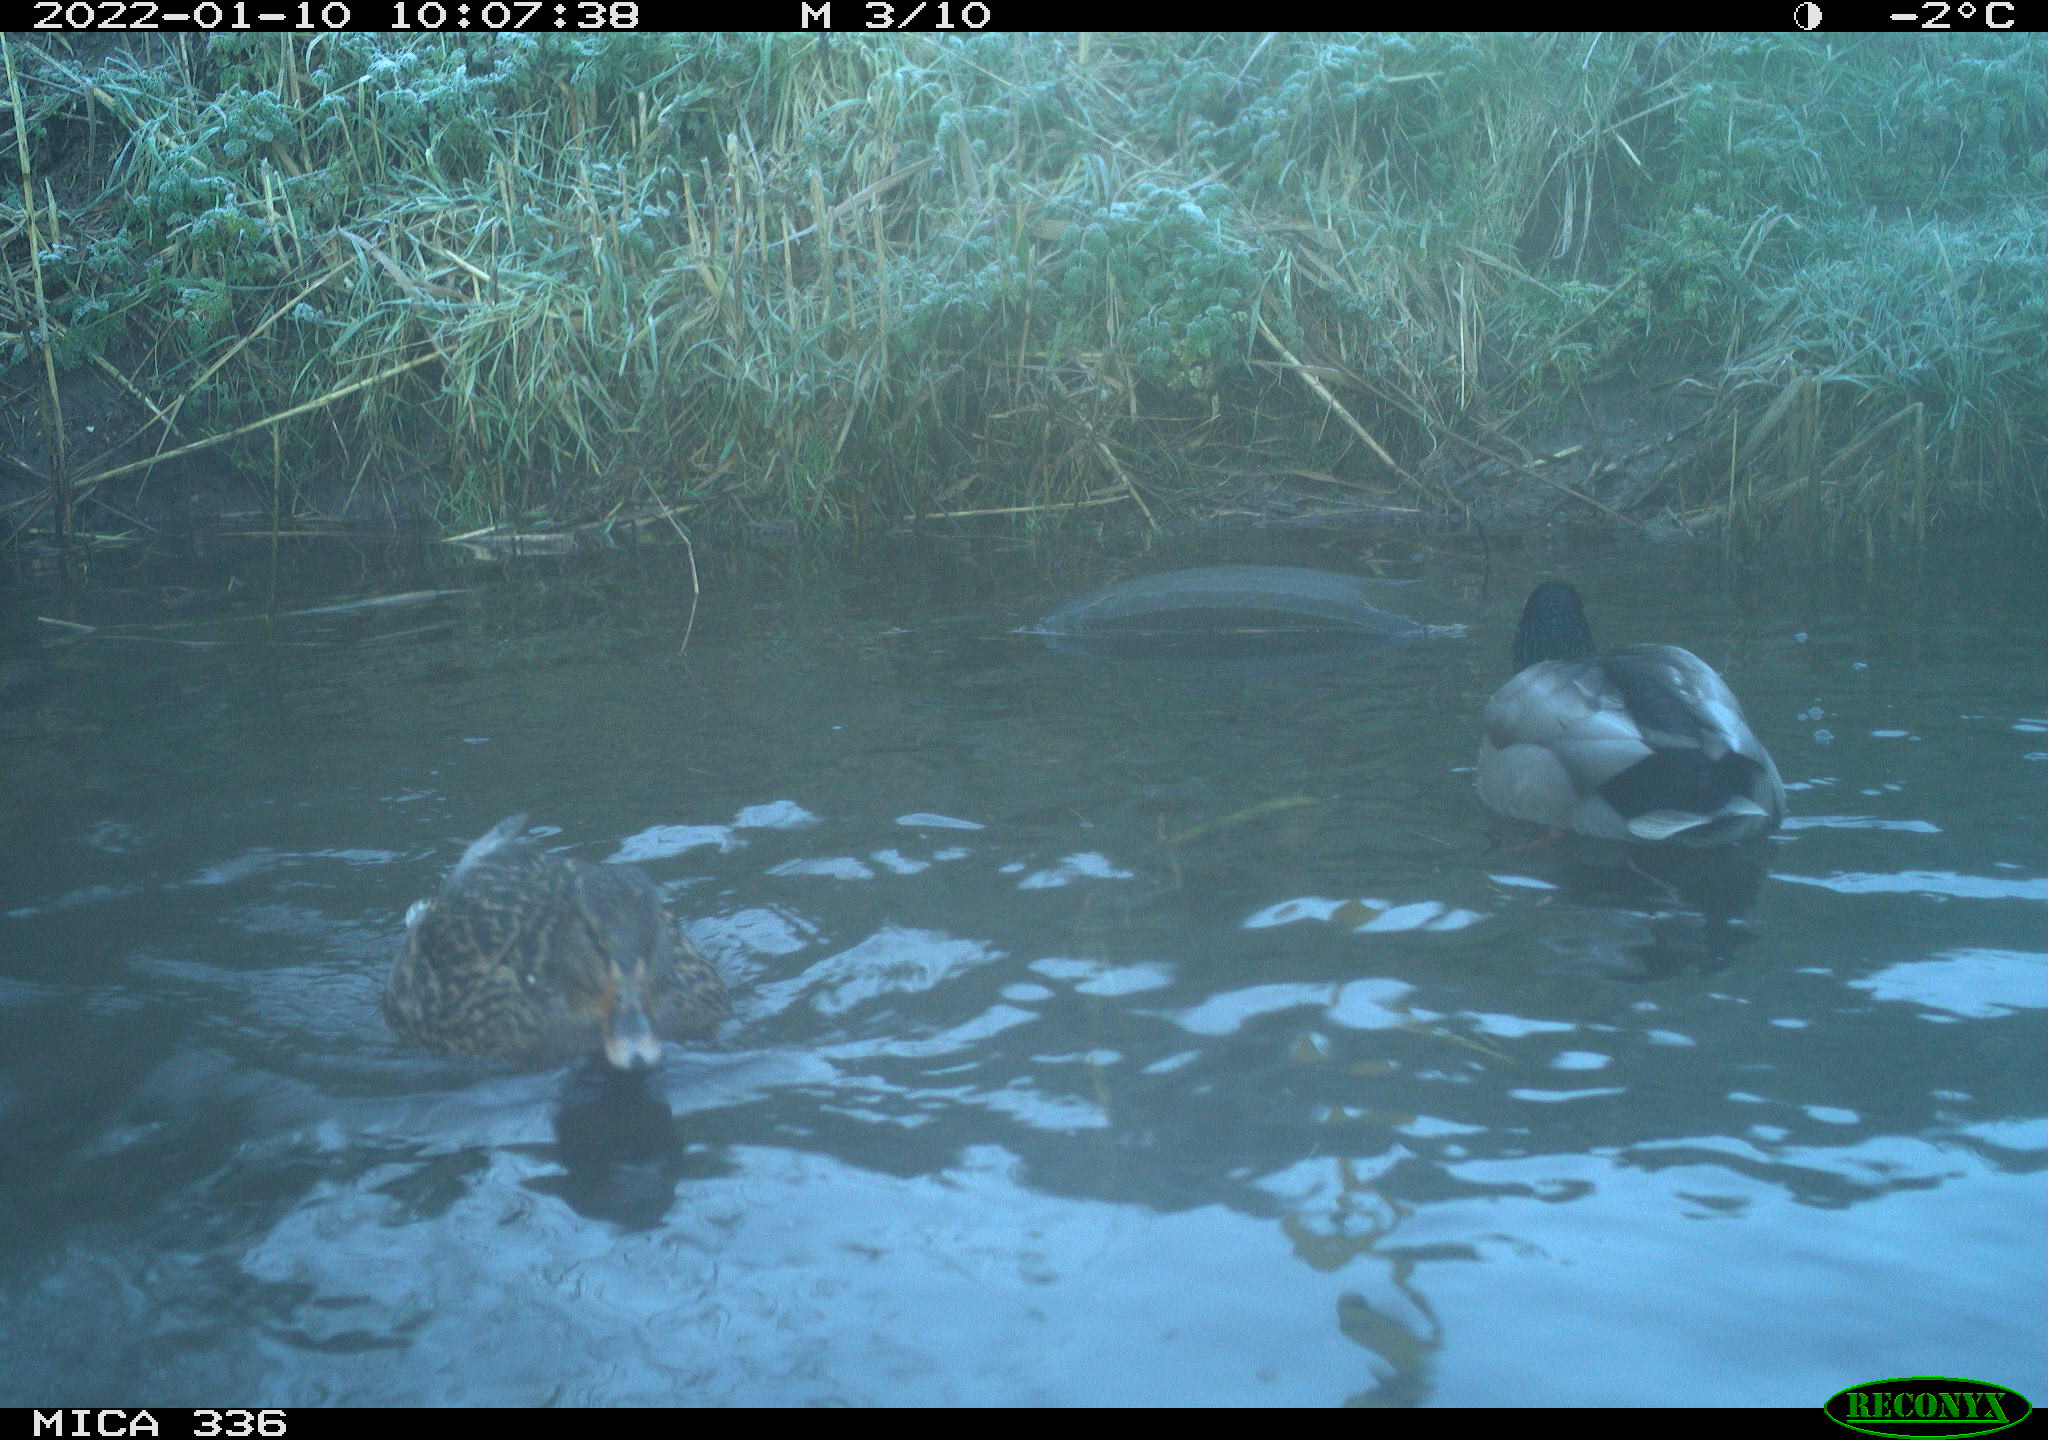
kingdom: Animalia
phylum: Chordata
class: Aves
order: Anseriformes
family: Anatidae
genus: Anas
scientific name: Anas platyrhynchos
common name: Mallard
